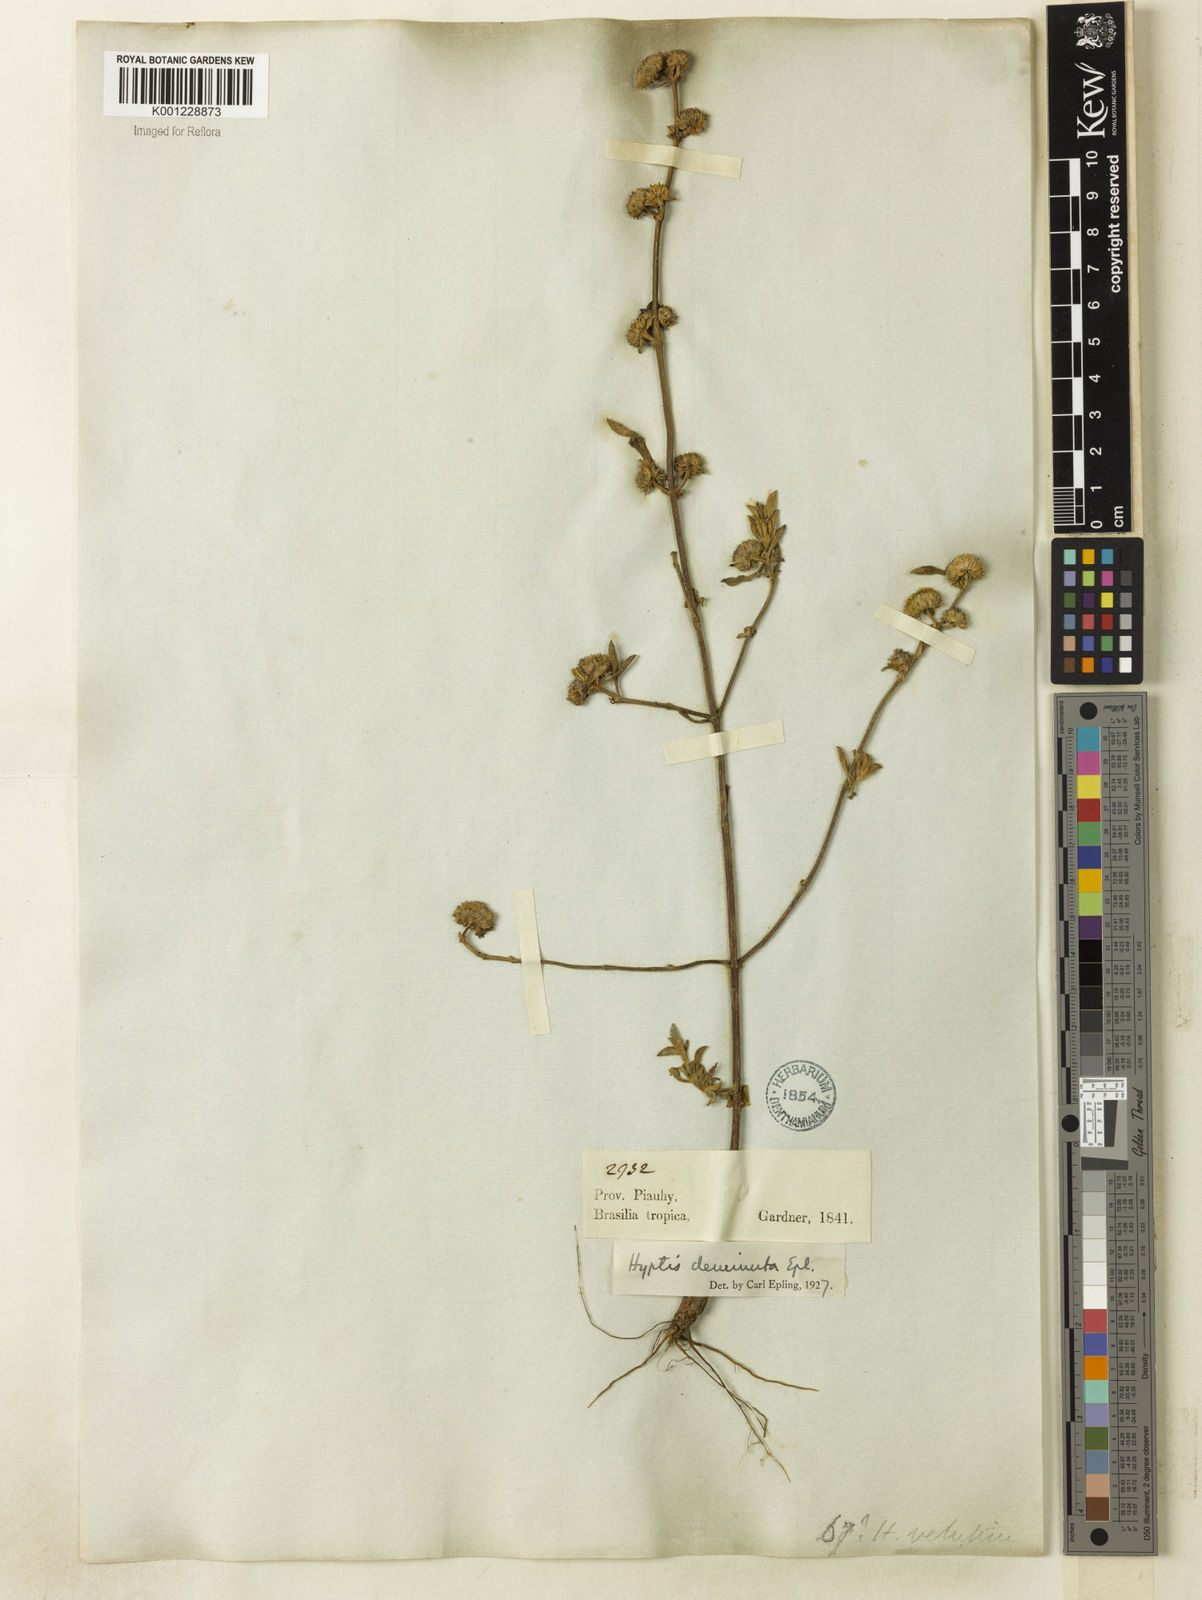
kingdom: Plantae
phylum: Tracheophyta
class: Magnoliopsida
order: Lamiales
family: Lamiaceae
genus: Hyptis
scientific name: Hyptis velutina
